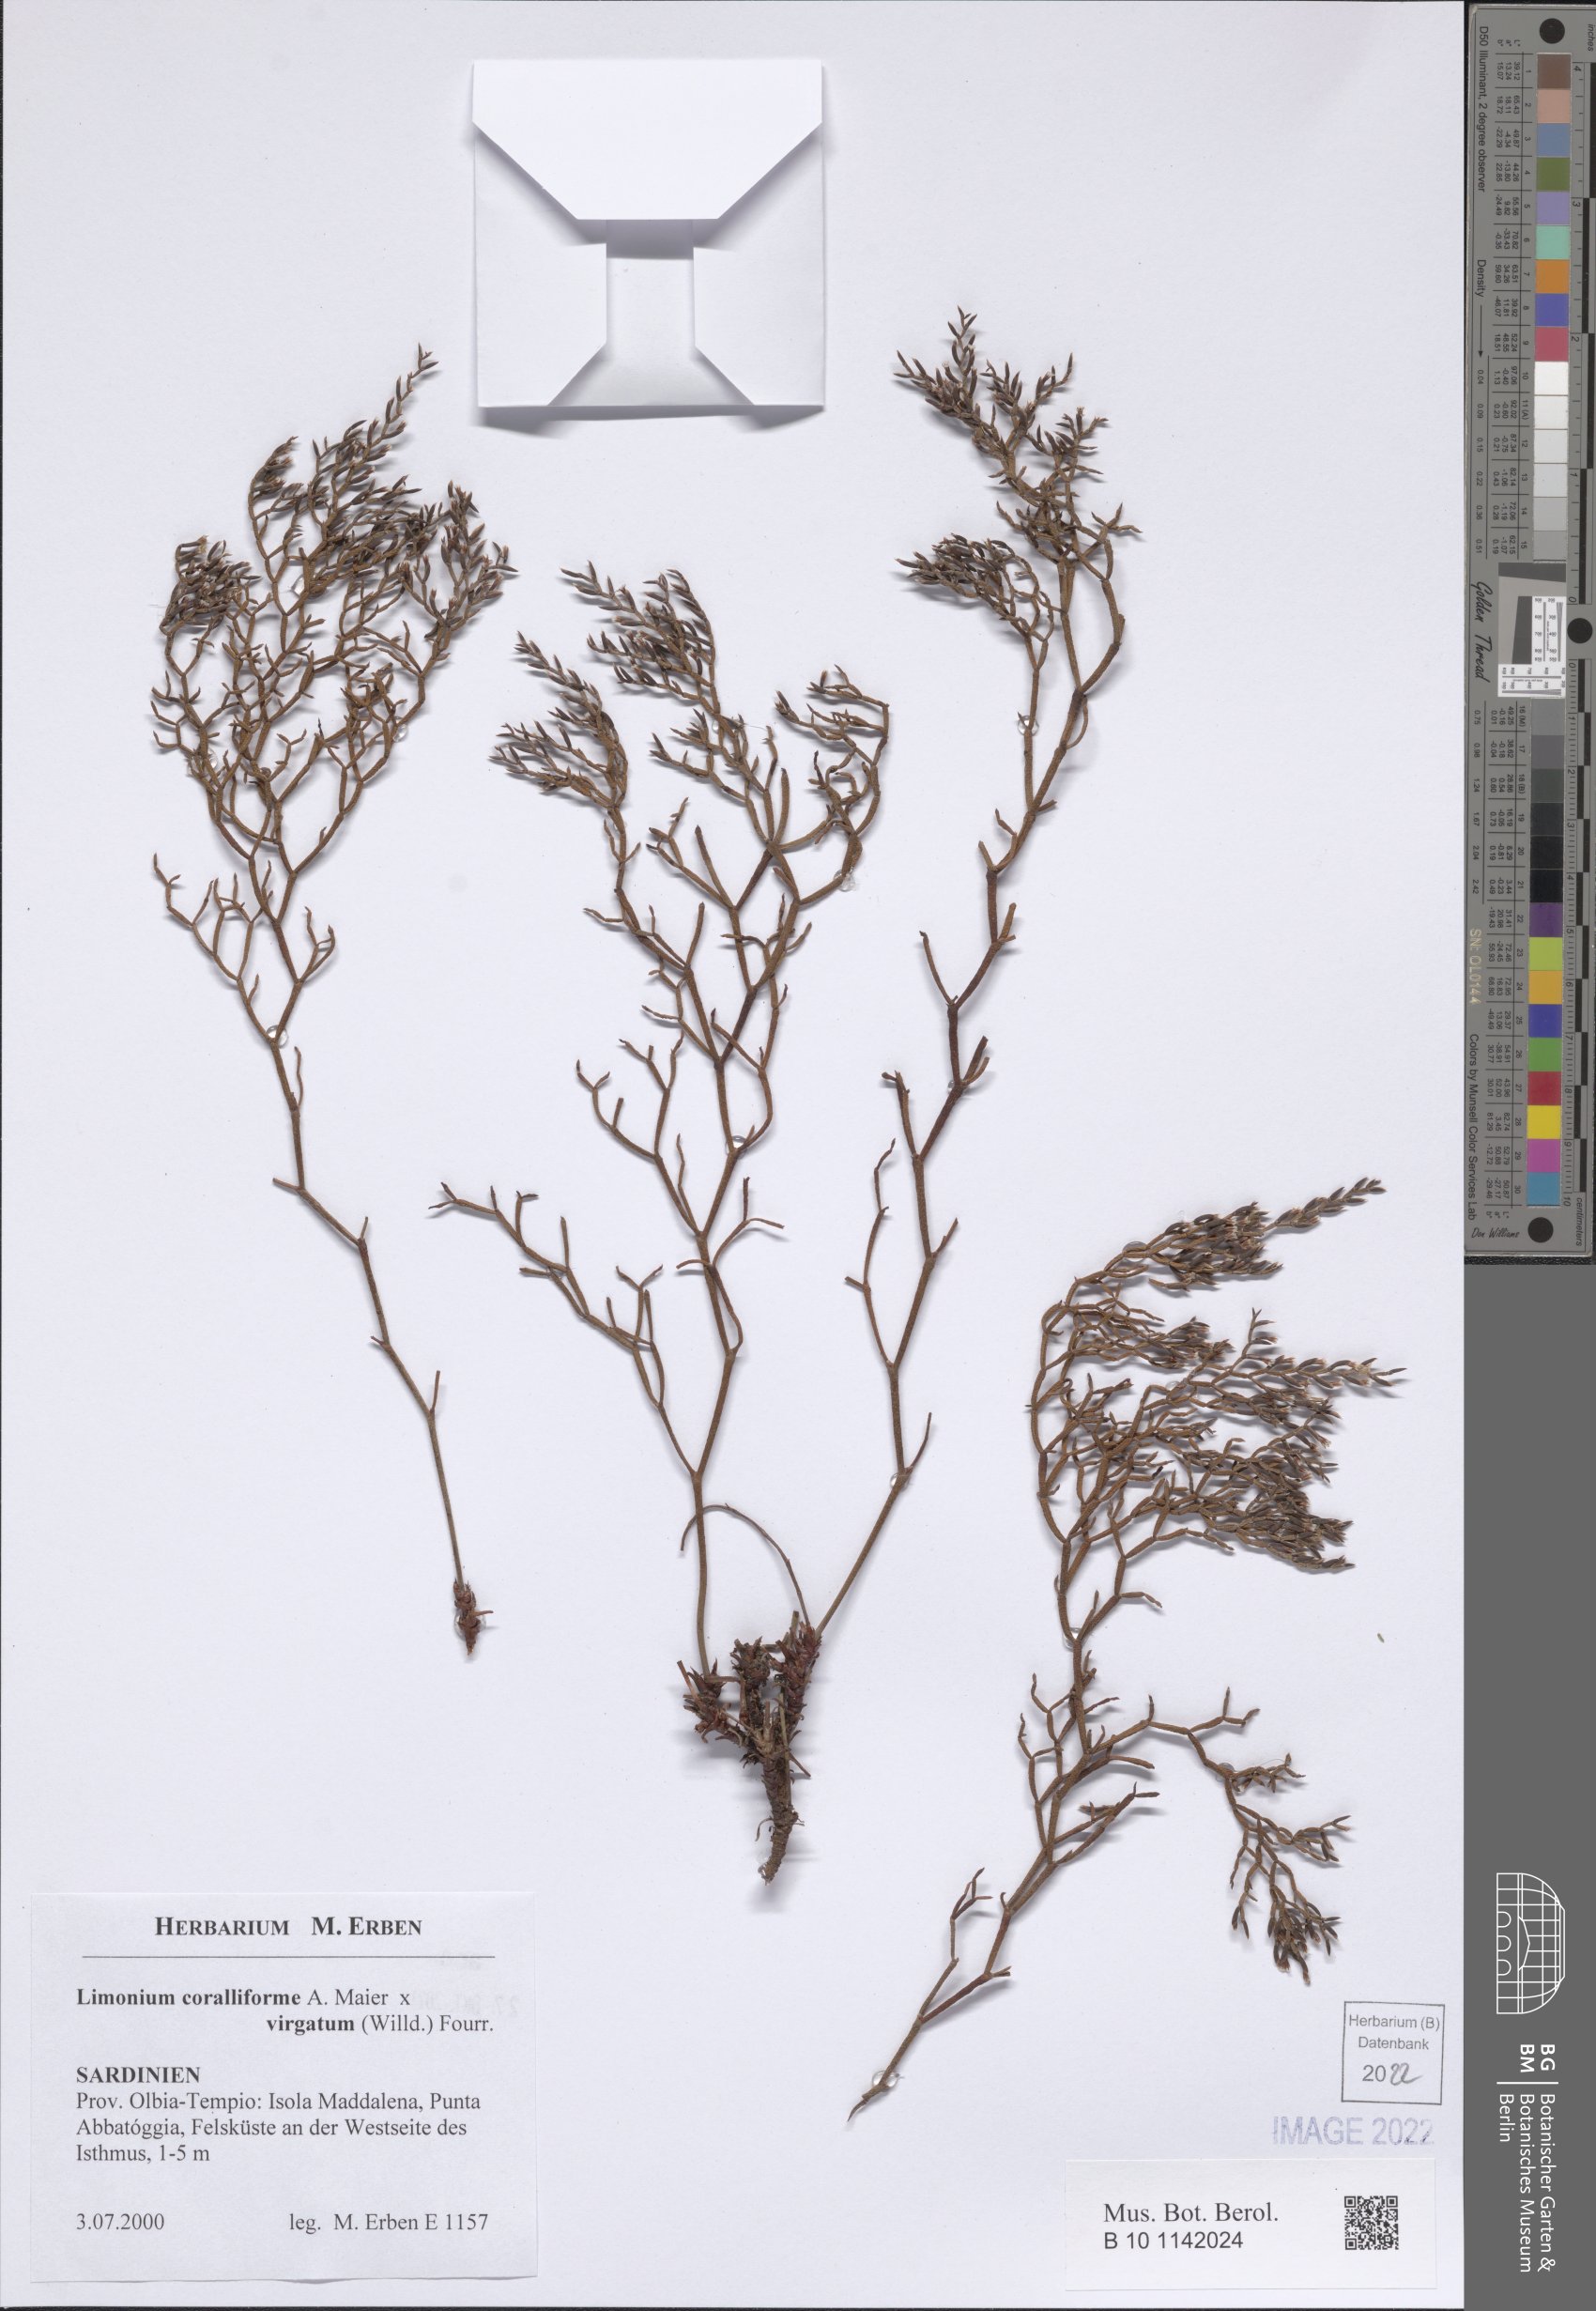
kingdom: Plantae
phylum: Tracheophyta
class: Magnoliopsida
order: Caryophyllales
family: Plumbaginaceae
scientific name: Plumbaginaceae
